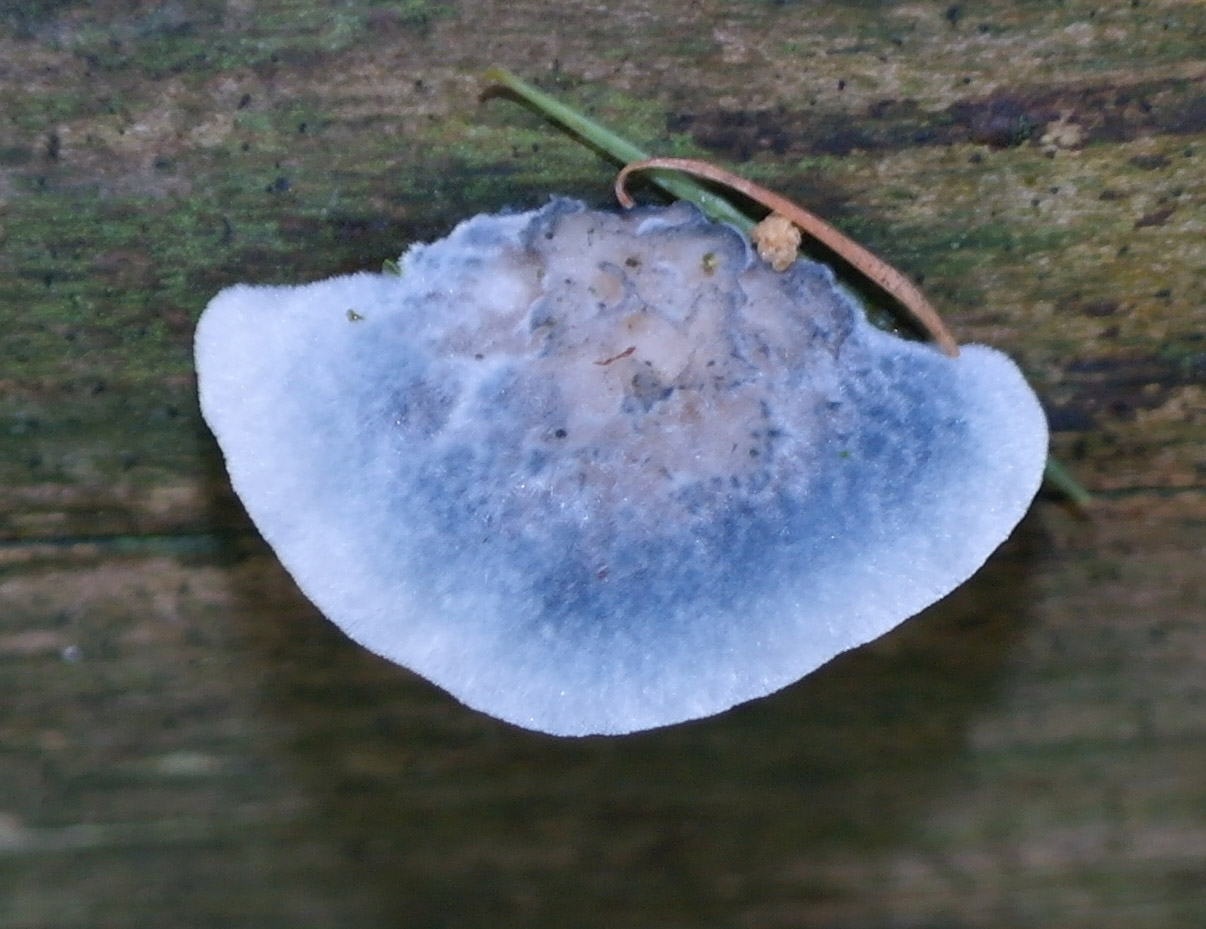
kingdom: Fungi
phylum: Basidiomycota
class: Agaricomycetes
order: Polyporales
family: Polyporaceae
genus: Cyanosporus
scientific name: Cyanosporus caesius
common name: blålig kødporesvamp
